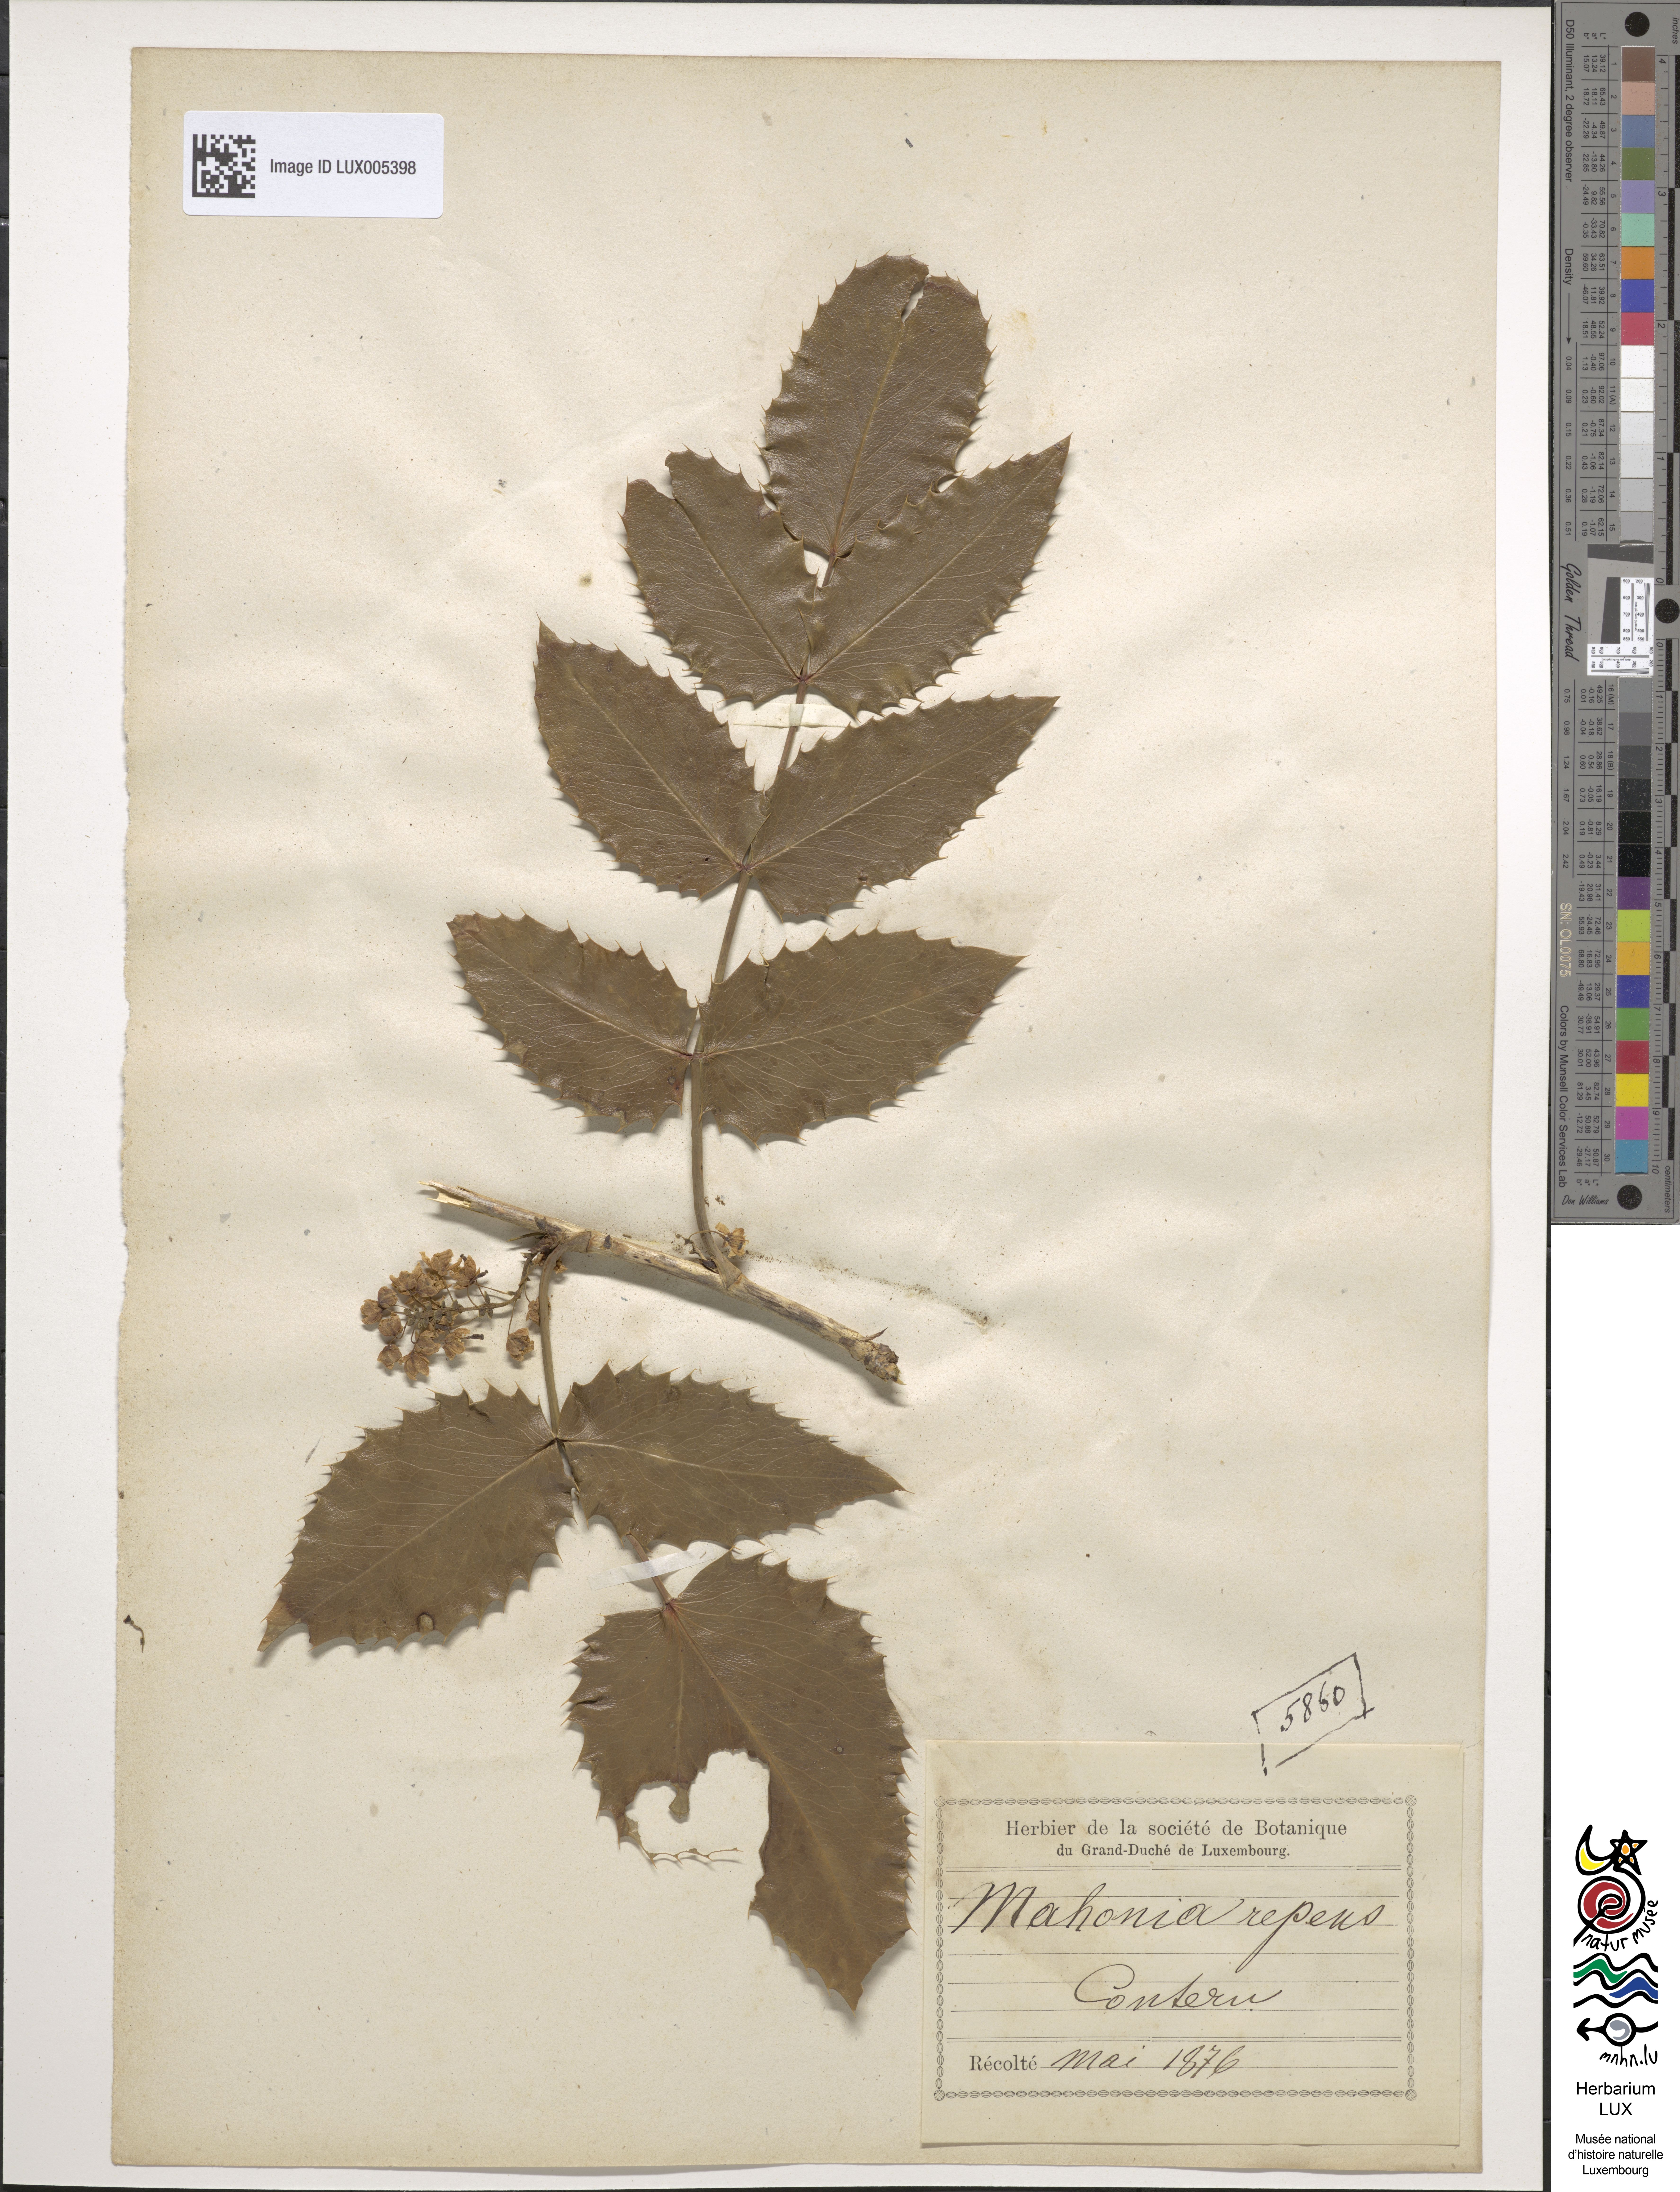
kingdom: Plantae
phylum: Tracheophyta
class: Magnoliopsida
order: Ranunculales
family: Berberidaceae
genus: Mahonia
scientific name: Mahonia repens
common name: Creeping oregon-grape
